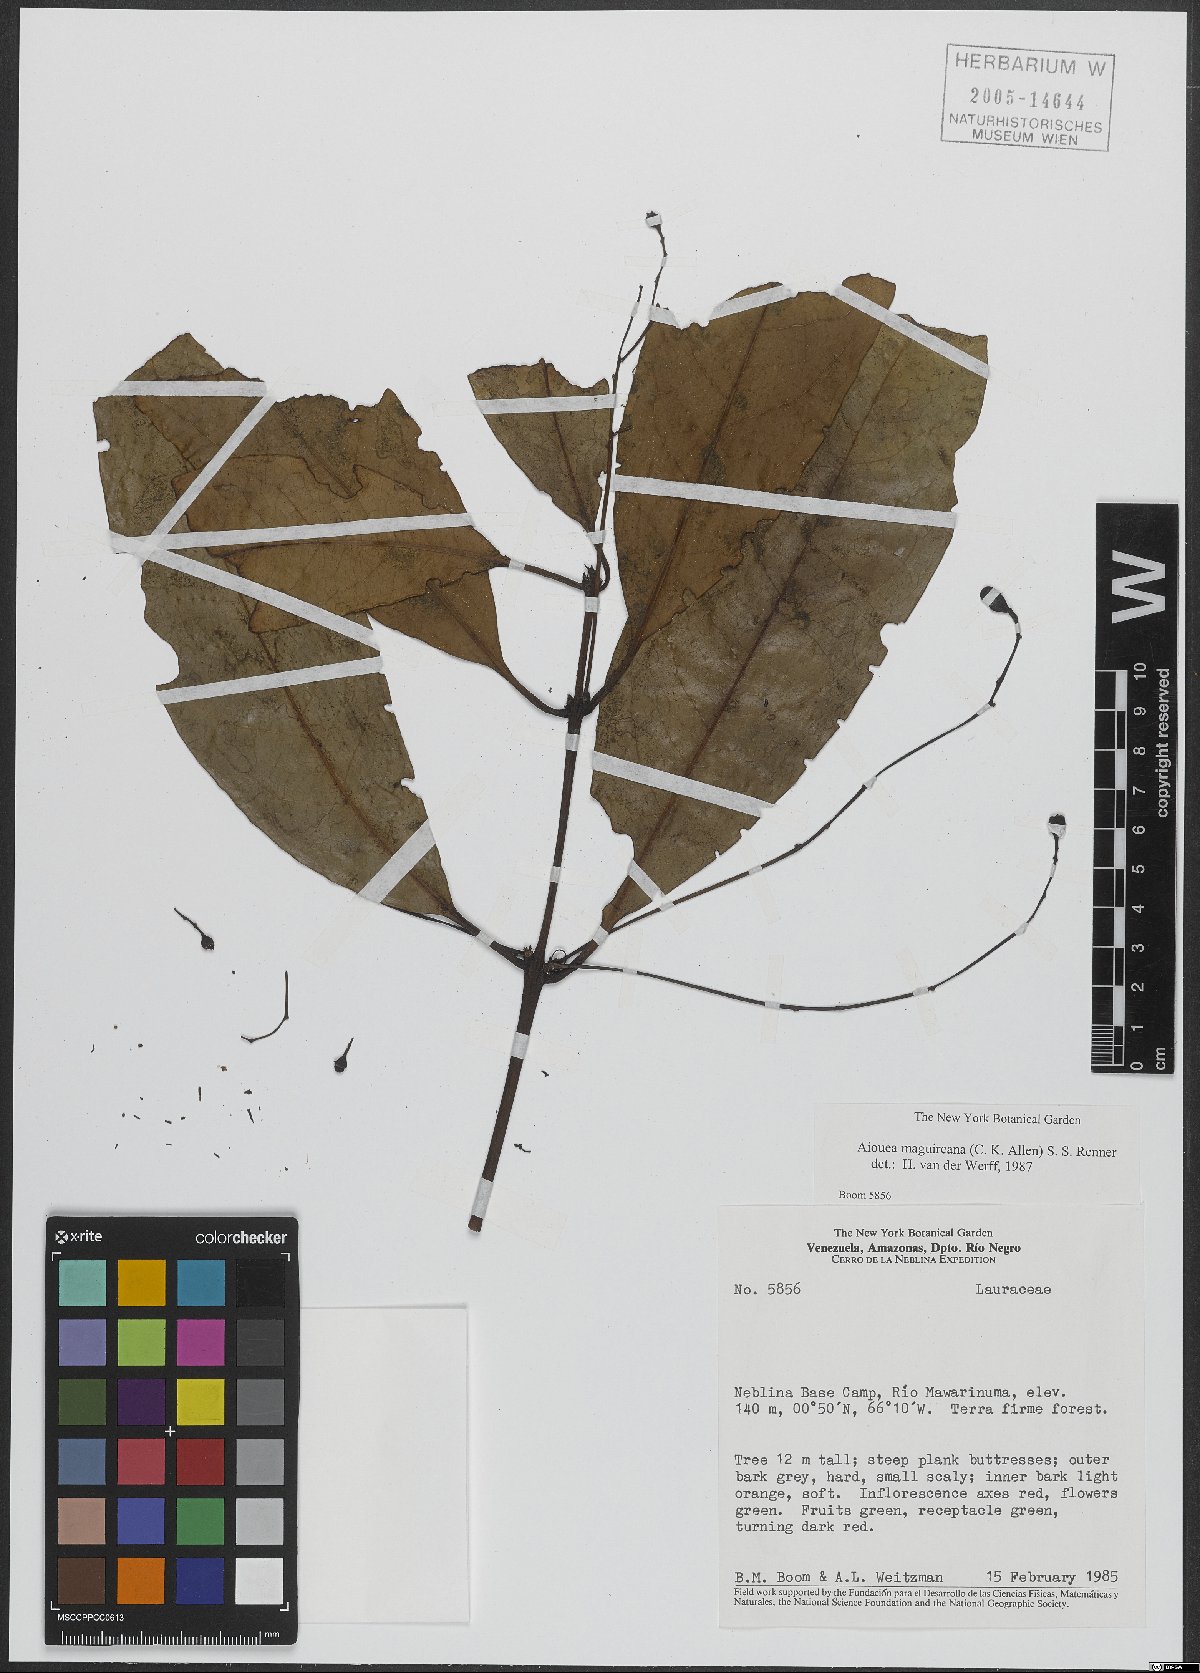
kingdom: Plantae
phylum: Tracheophyta
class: Magnoliopsida
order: Laurales
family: Lauraceae
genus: Aiouea
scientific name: Aiouea maguireana
